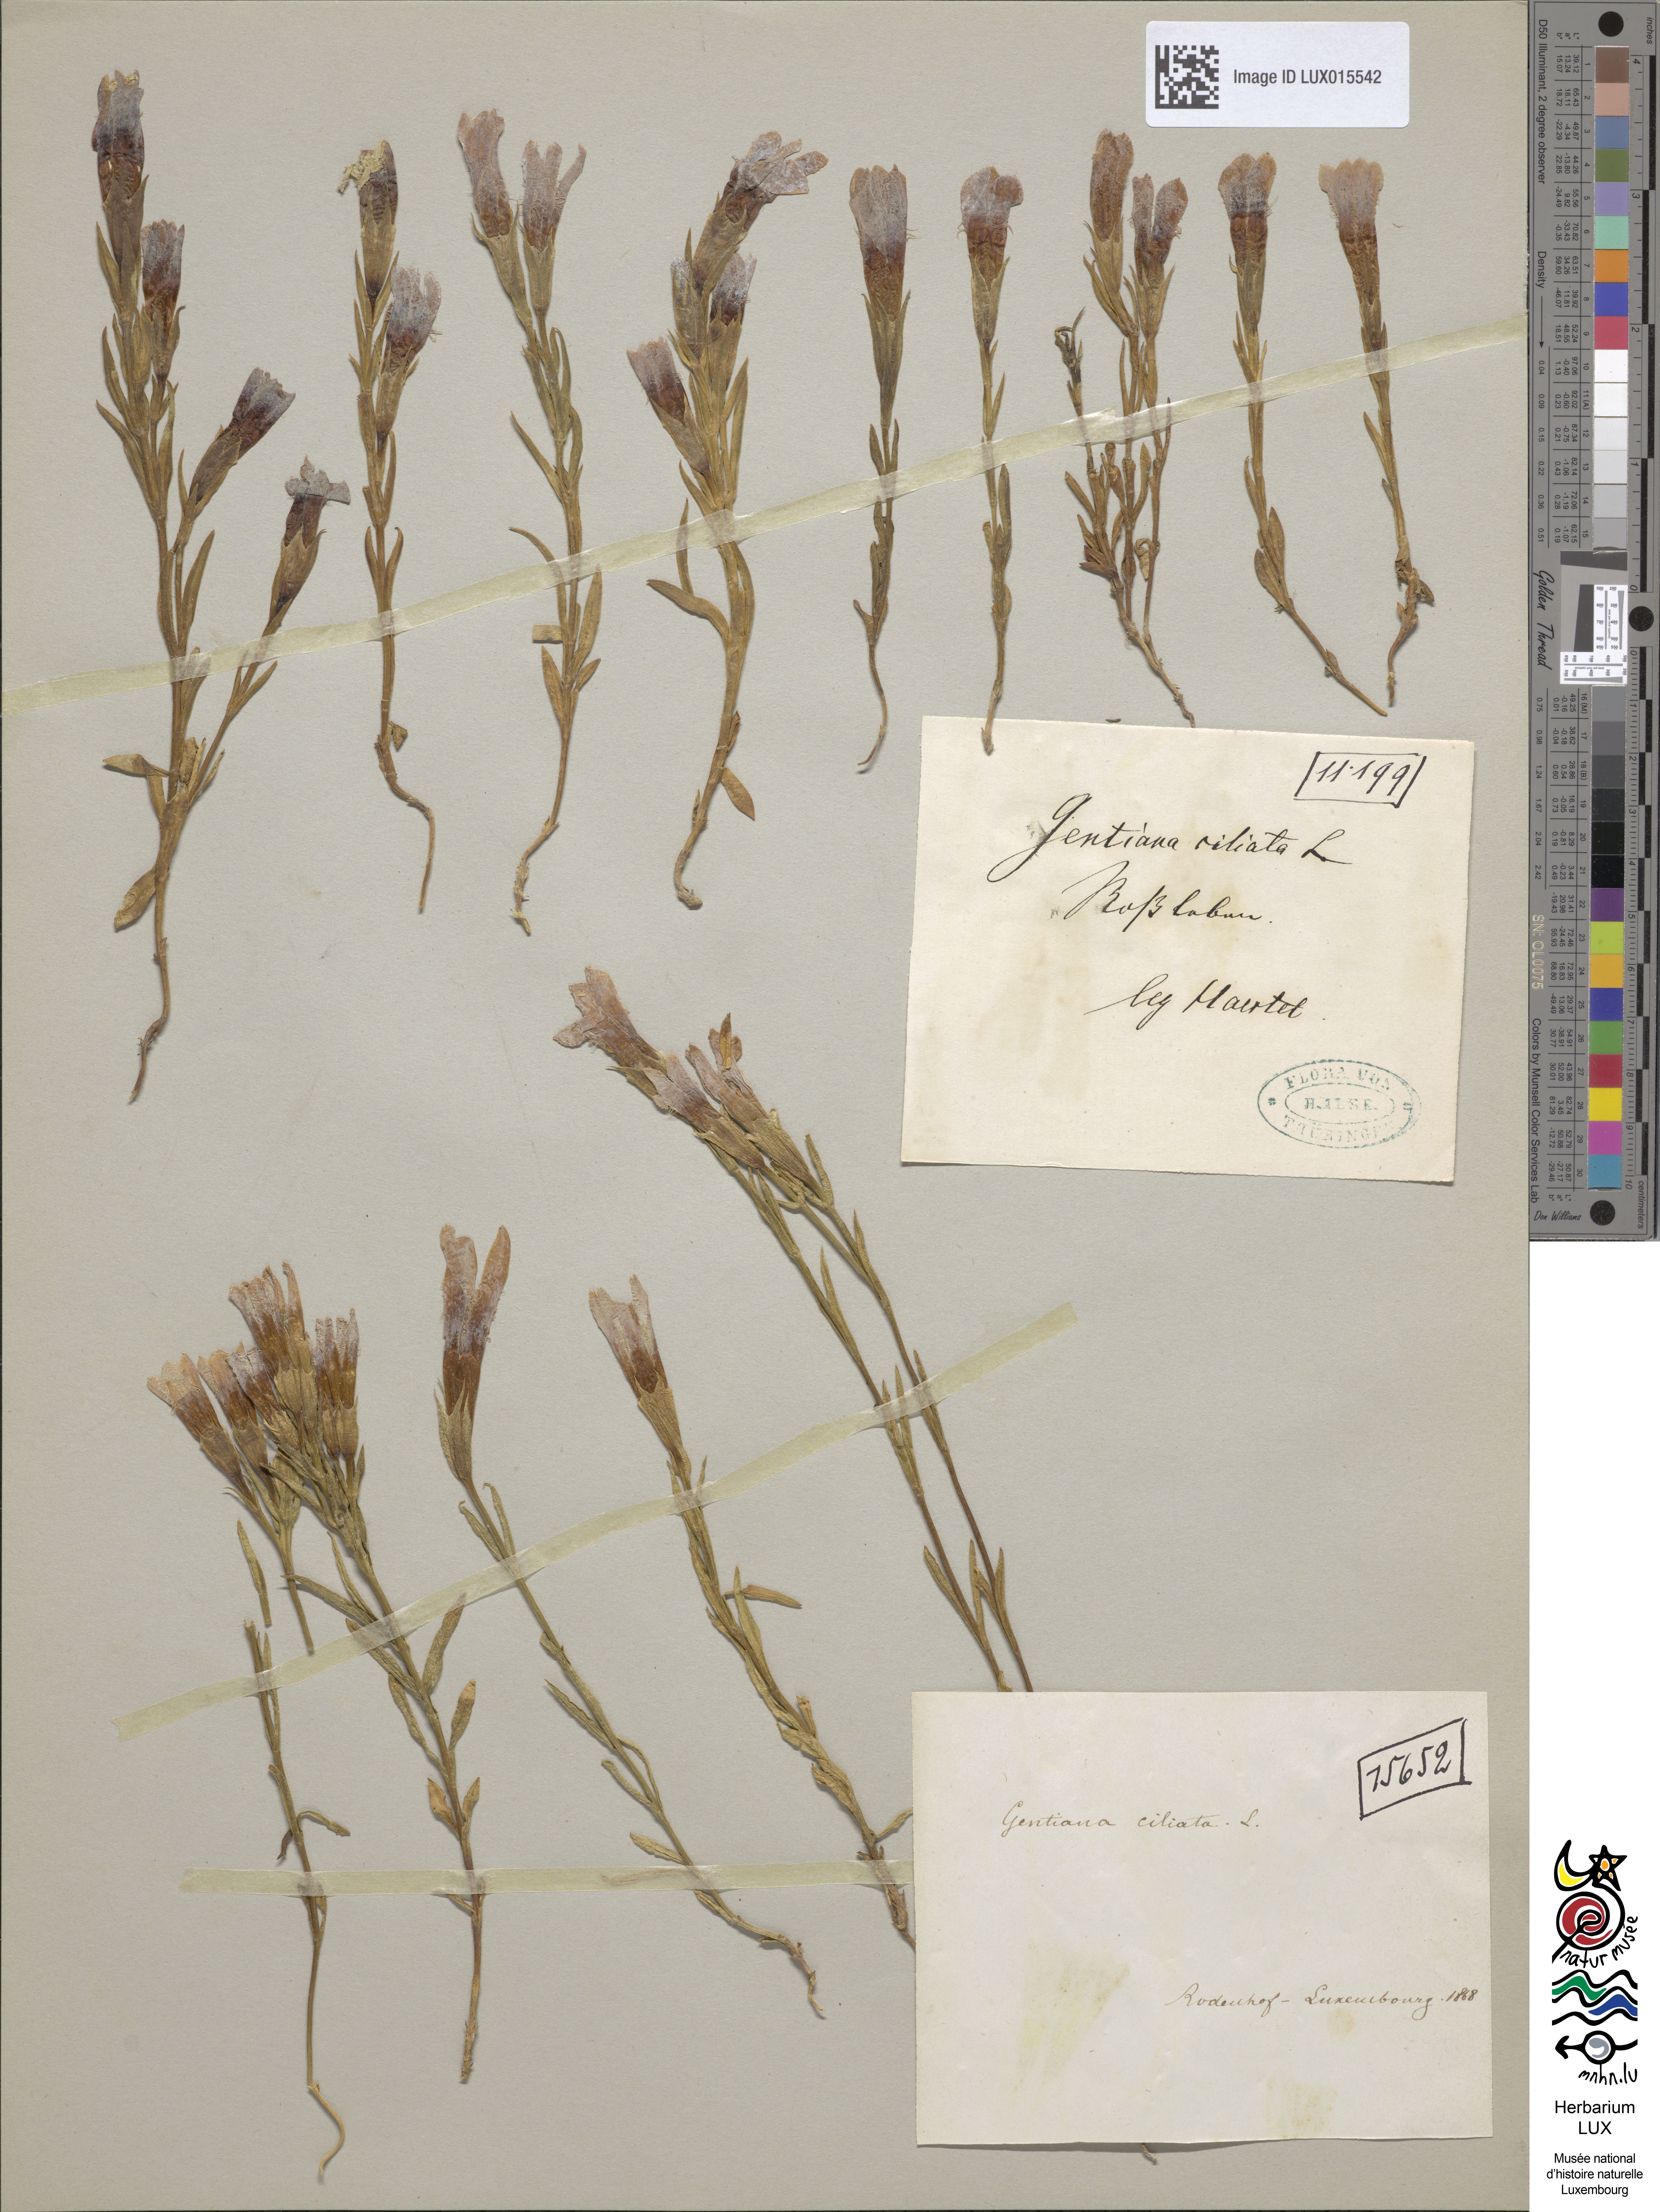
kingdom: Plantae
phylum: Tracheophyta
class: Magnoliopsida
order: Gentianales
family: Gentianaceae
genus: Gentianopsis
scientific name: Gentianopsis ciliata
